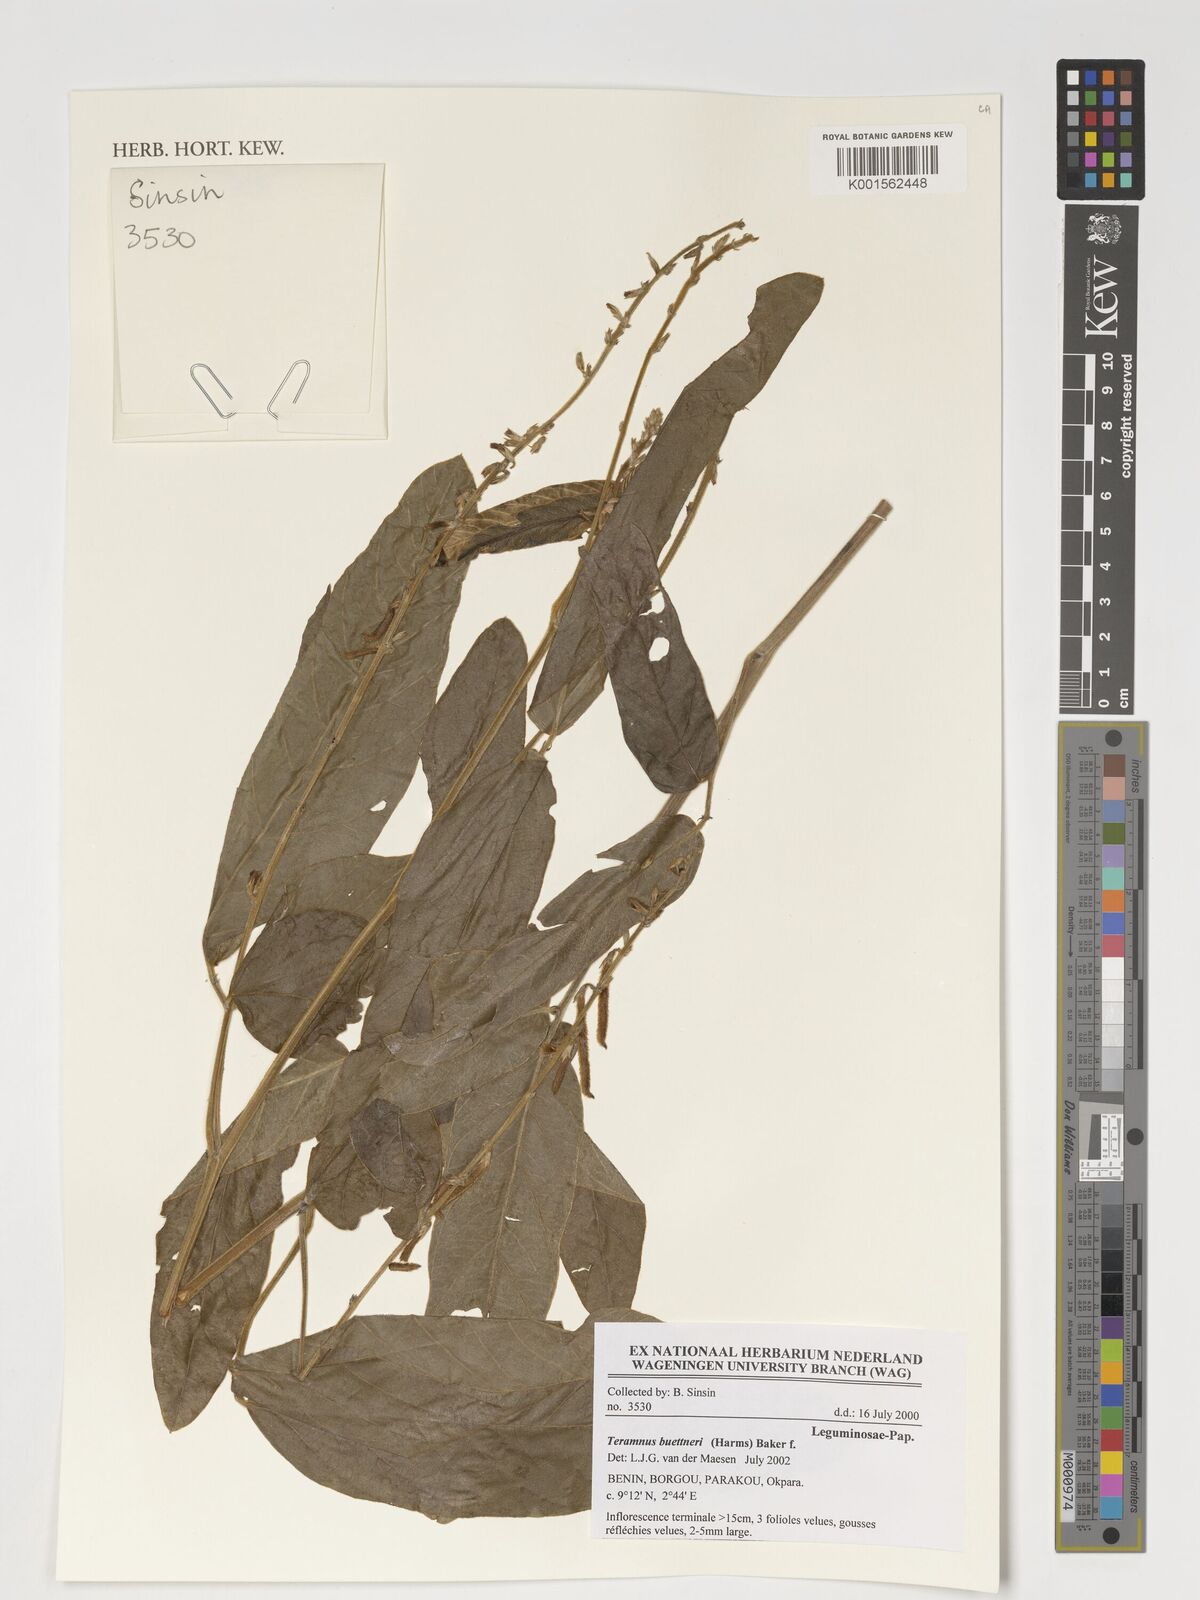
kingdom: Plantae
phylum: Tracheophyta
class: Magnoliopsida
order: Fabales
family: Fabaceae
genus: Teramnus
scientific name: Teramnus buettneri
